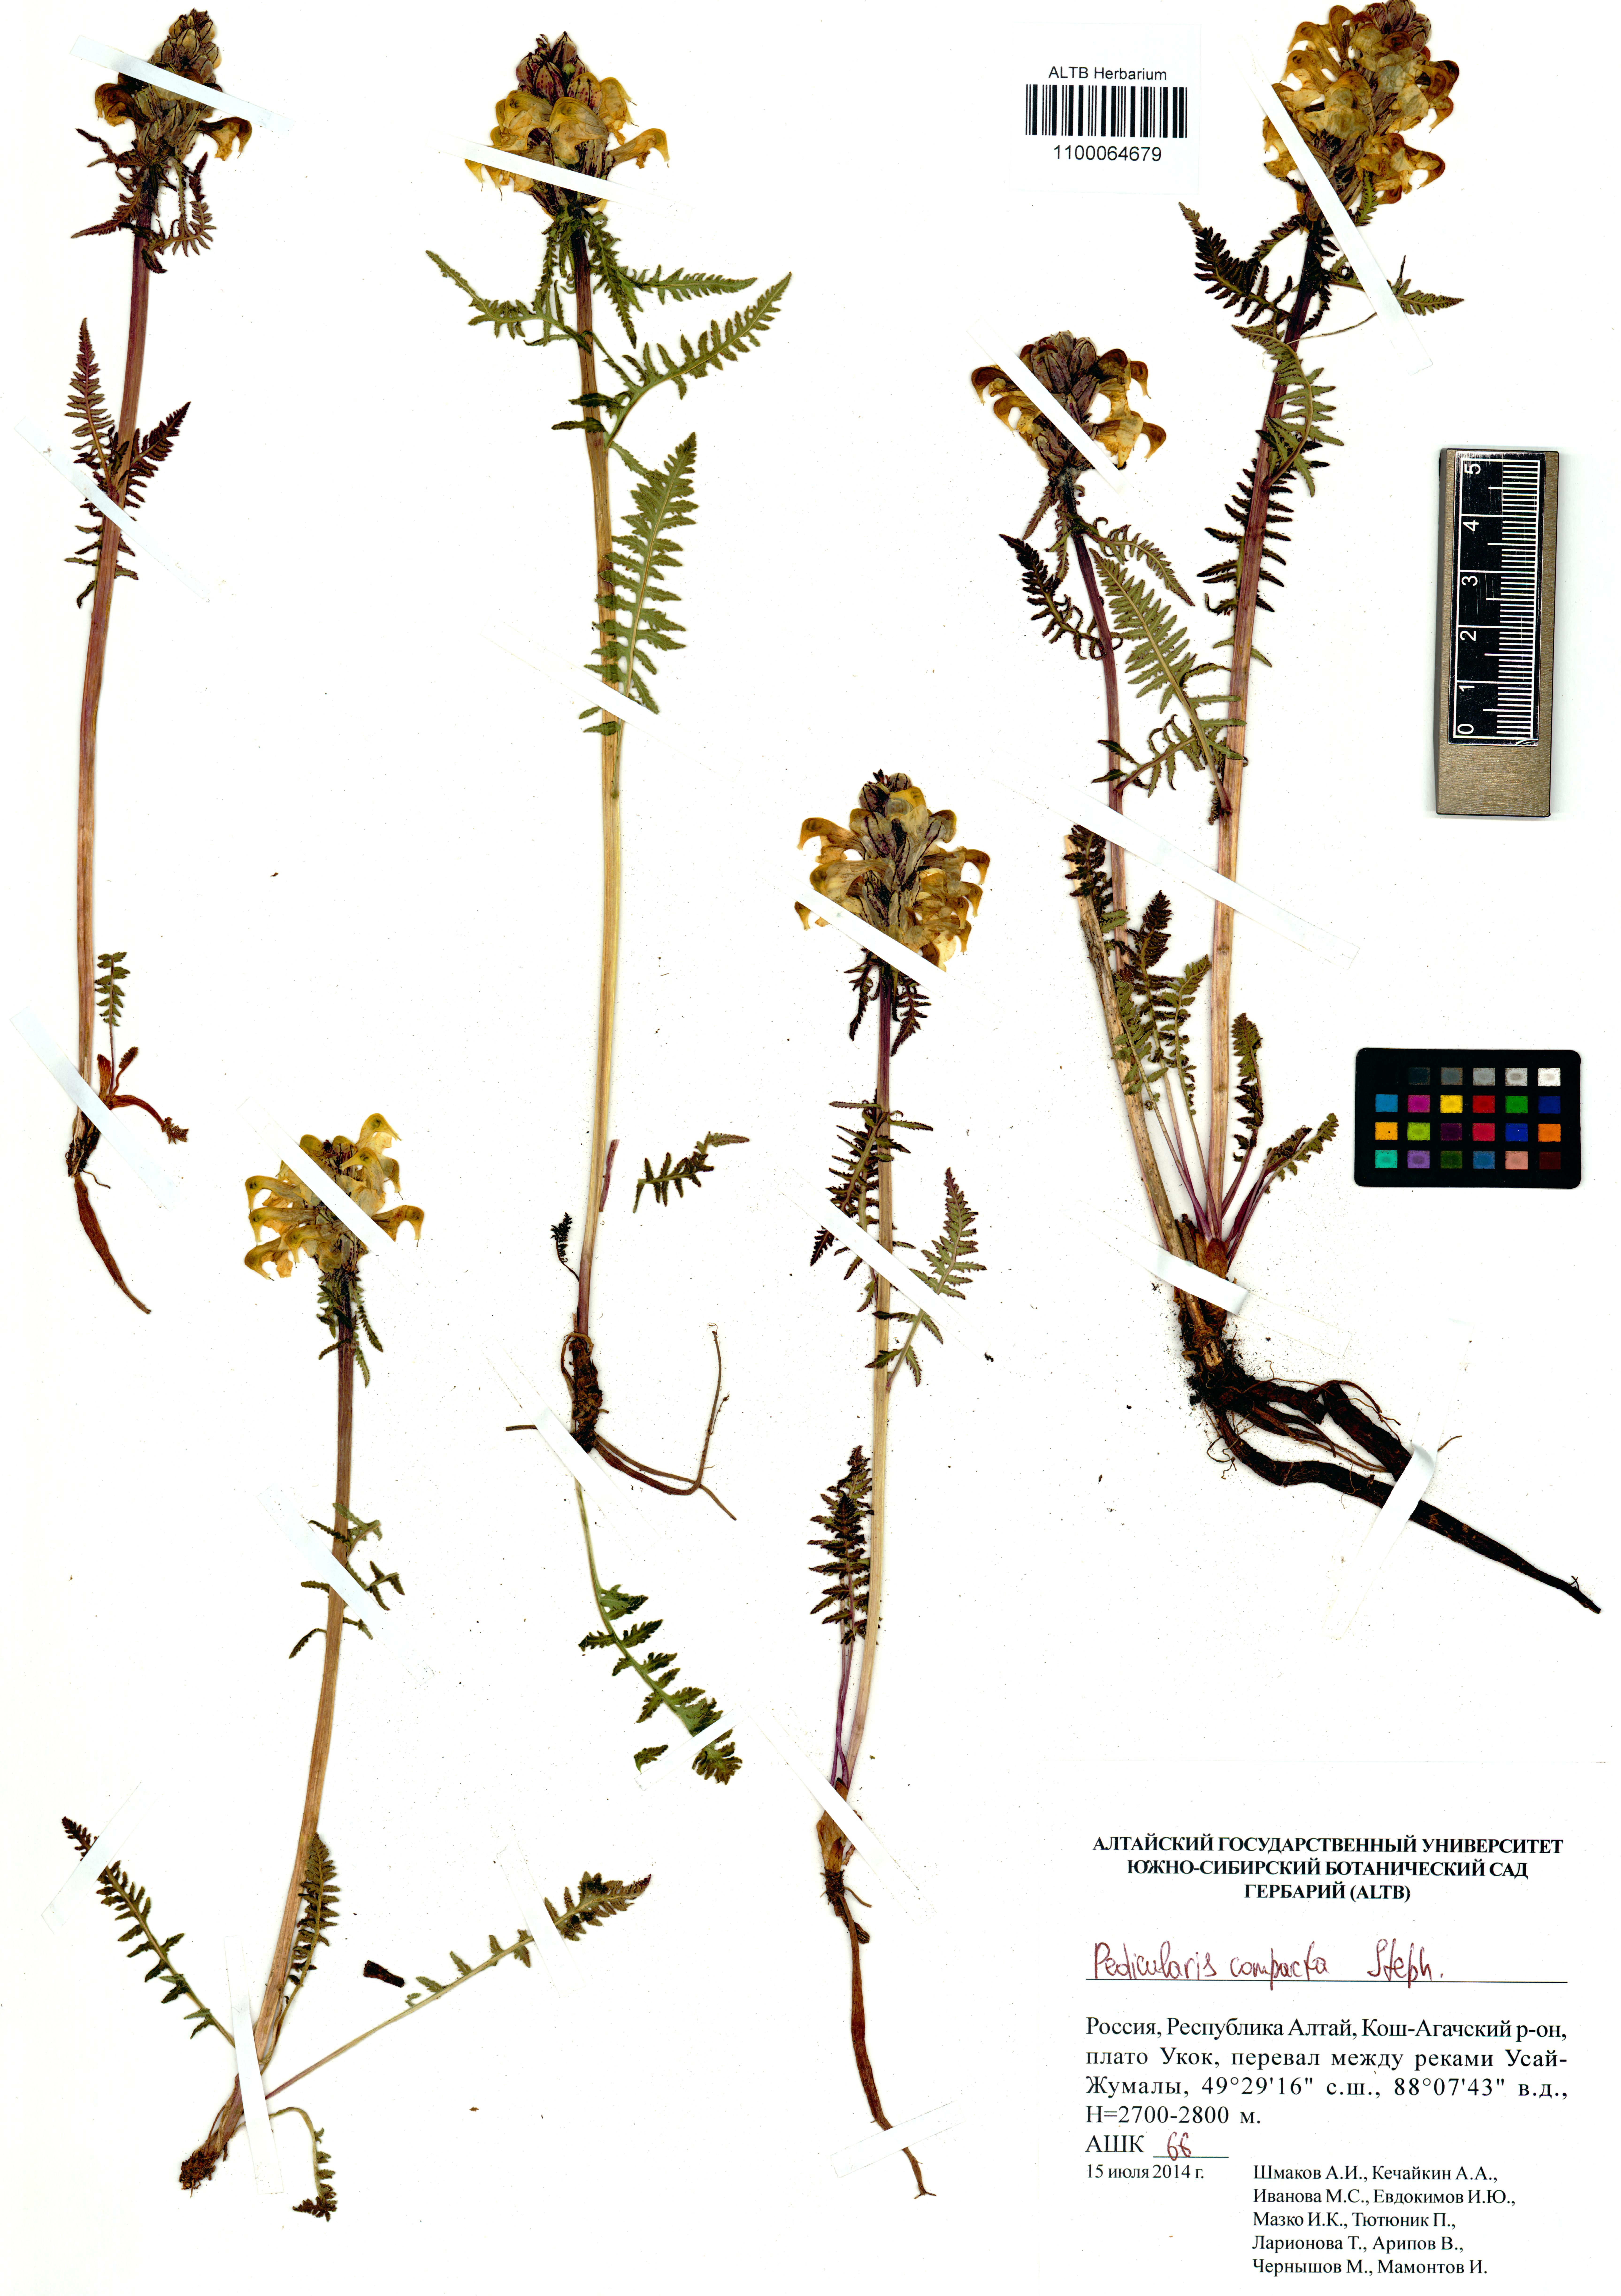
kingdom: Plantae
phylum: Tracheophyta
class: Magnoliopsida
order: Lamiales
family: Orobanchaceae
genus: Pedicularis
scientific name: Pedicularis compacta
